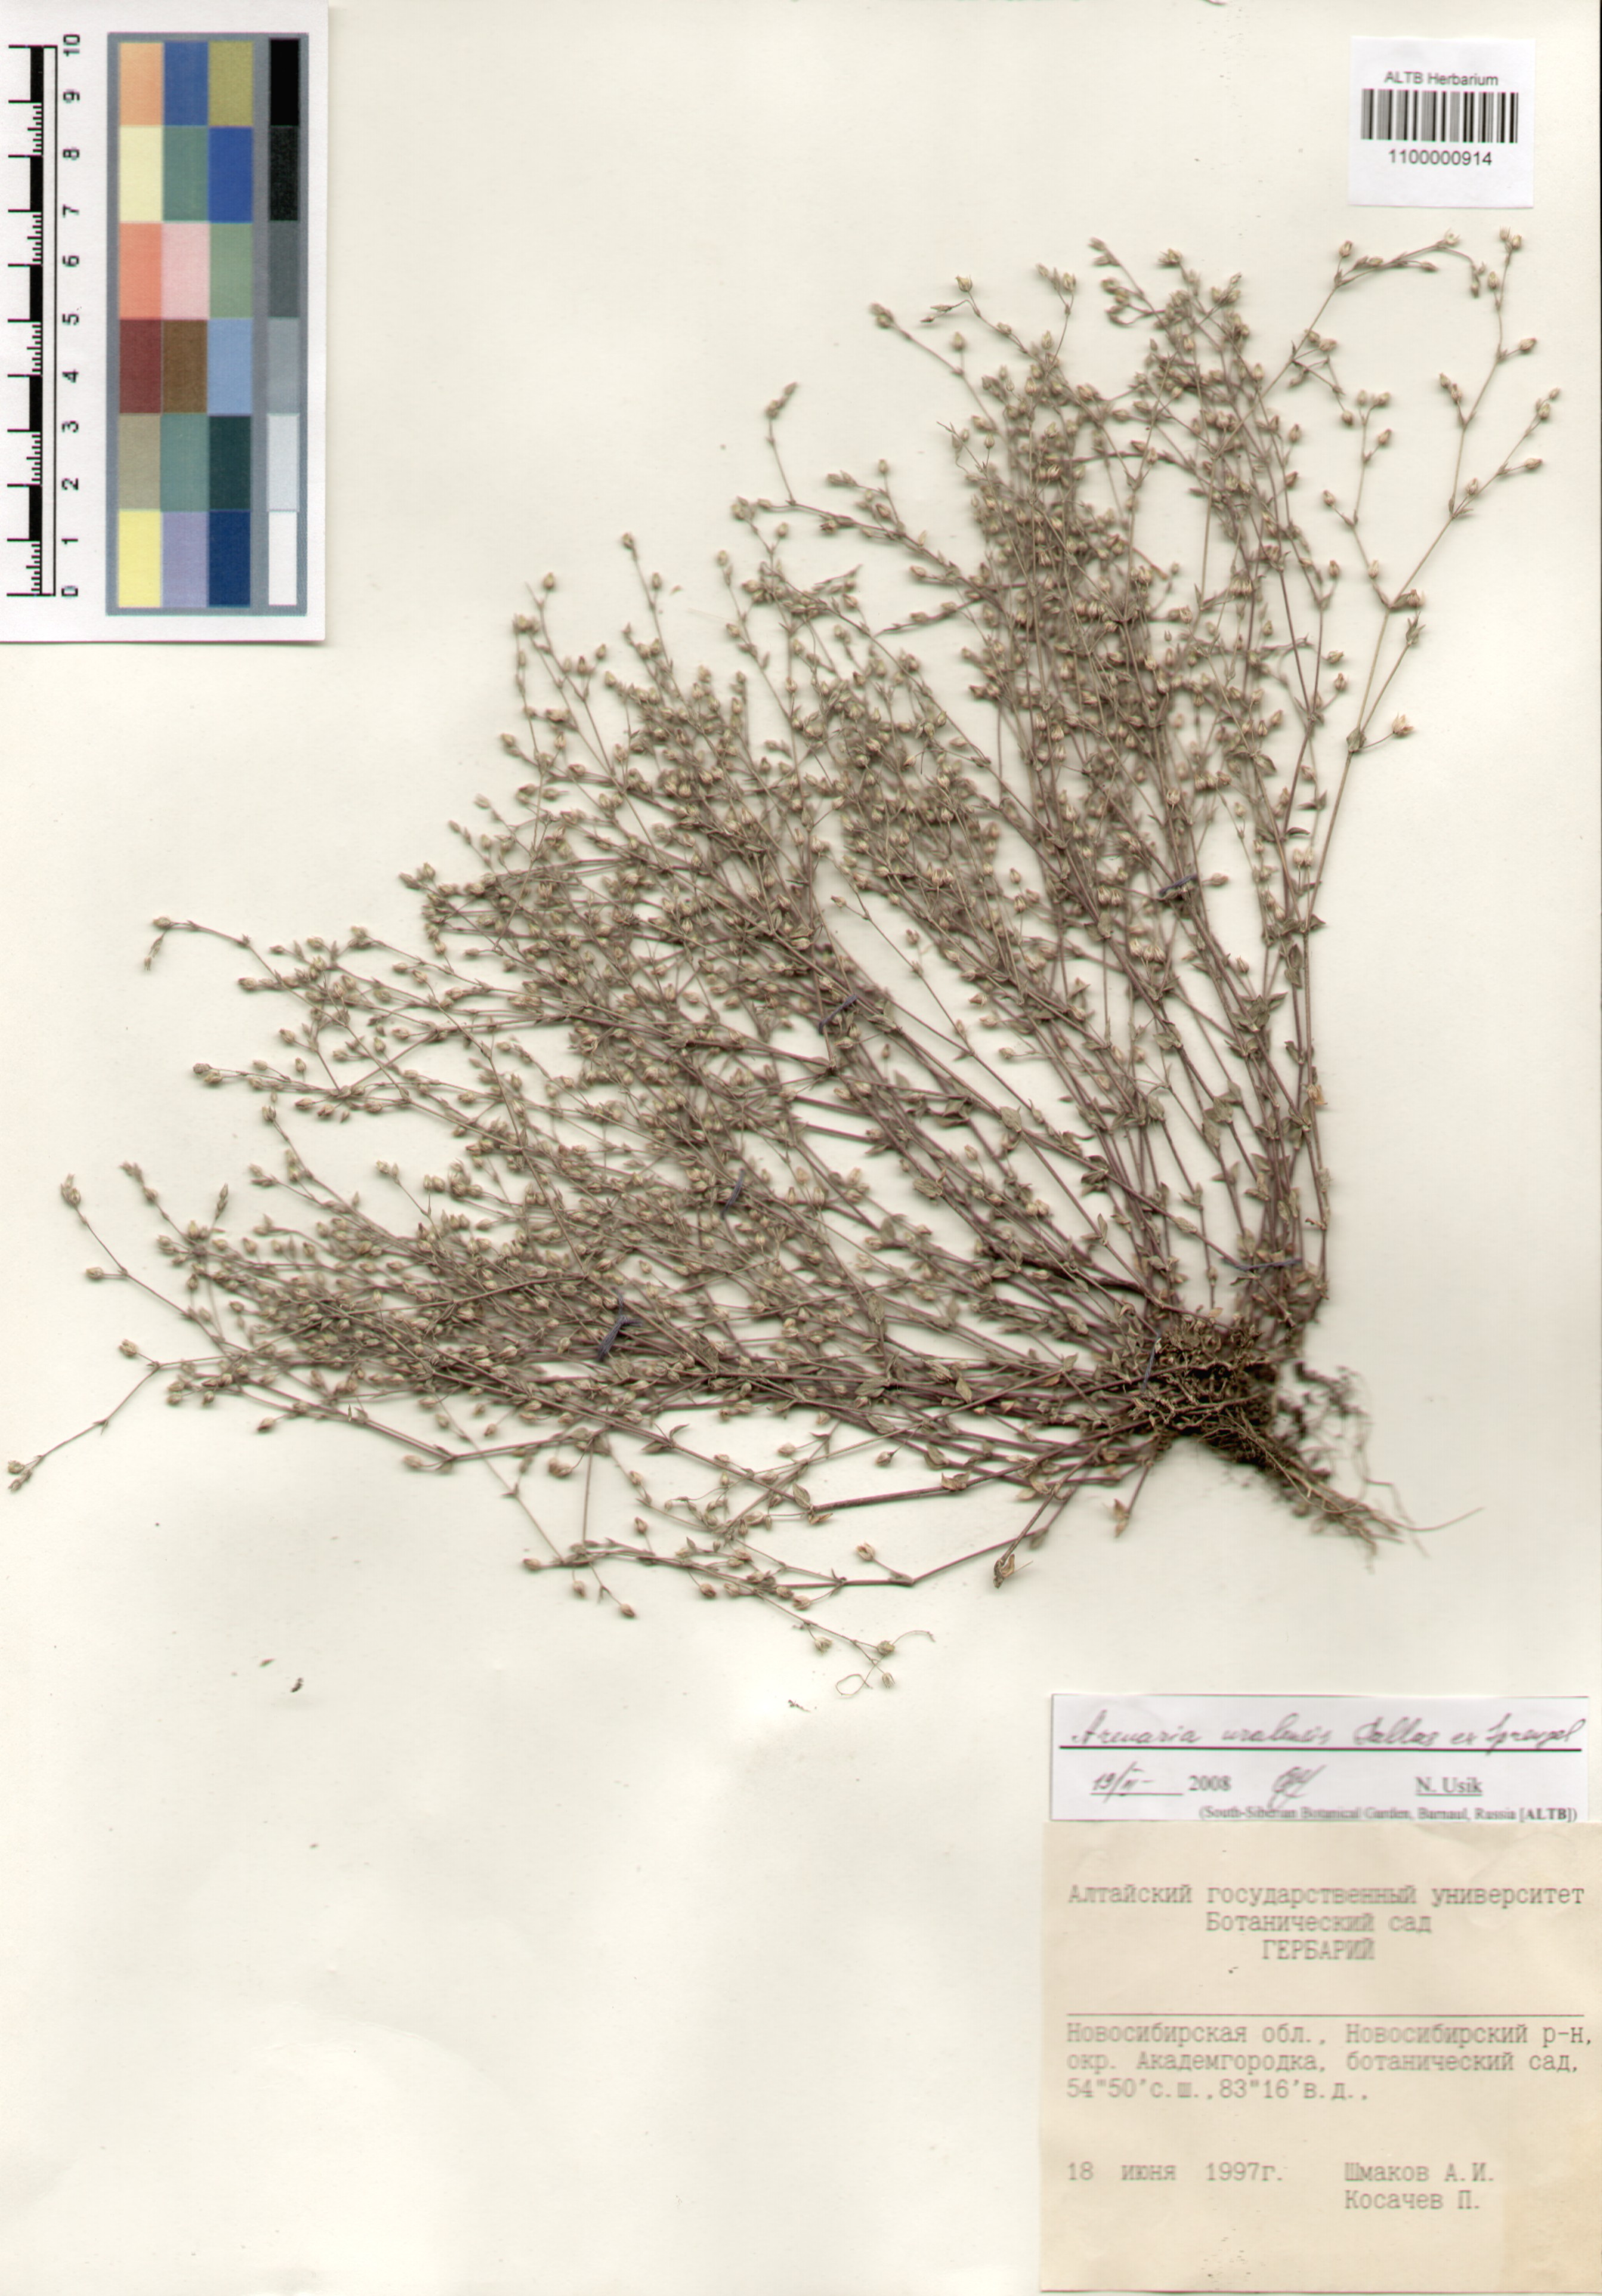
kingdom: Plantae
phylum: Tracheophyta
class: Magnoliopsida
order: Caryophyllales
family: Caryophyllaceae
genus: Arenaria
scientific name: Arenaria serpyllifolia
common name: Thyme-leaved sandwort
